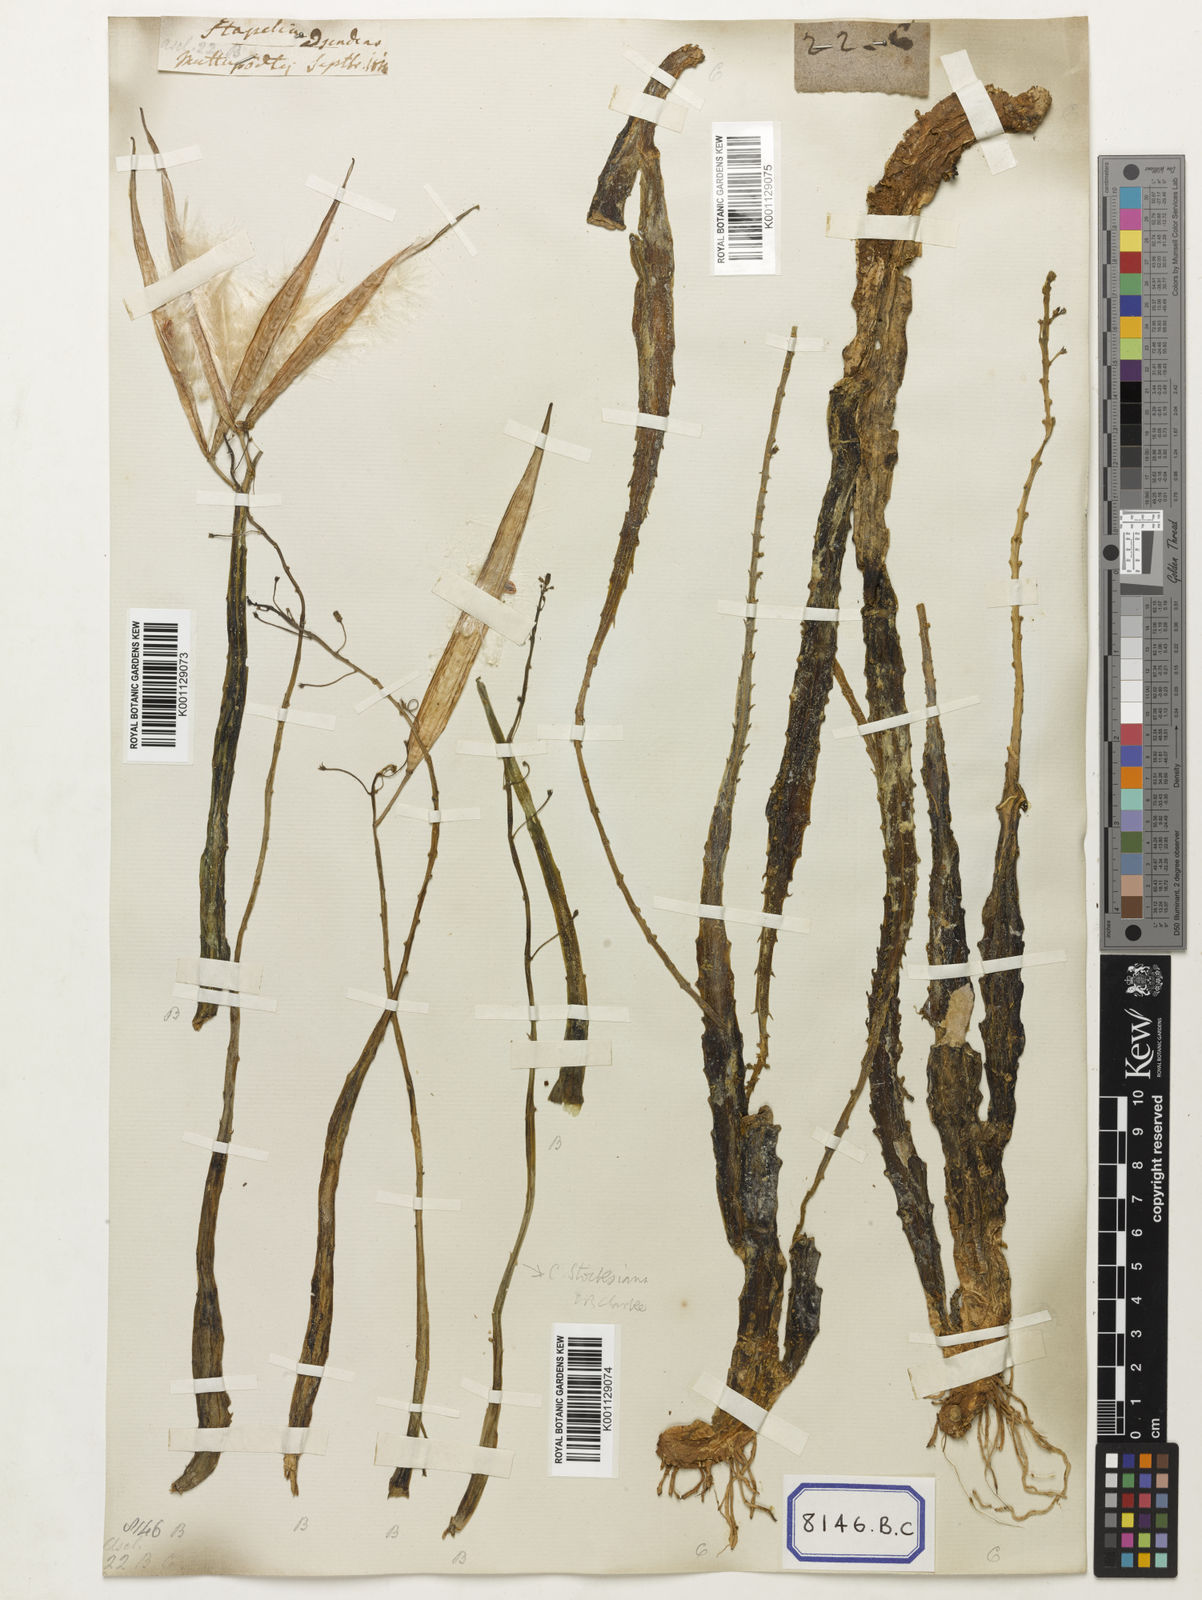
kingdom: Plantae
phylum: Tracheophyta
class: Magnoliopsida
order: Gentianales
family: Apocynaceae
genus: Caralluma
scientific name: Caralluma
